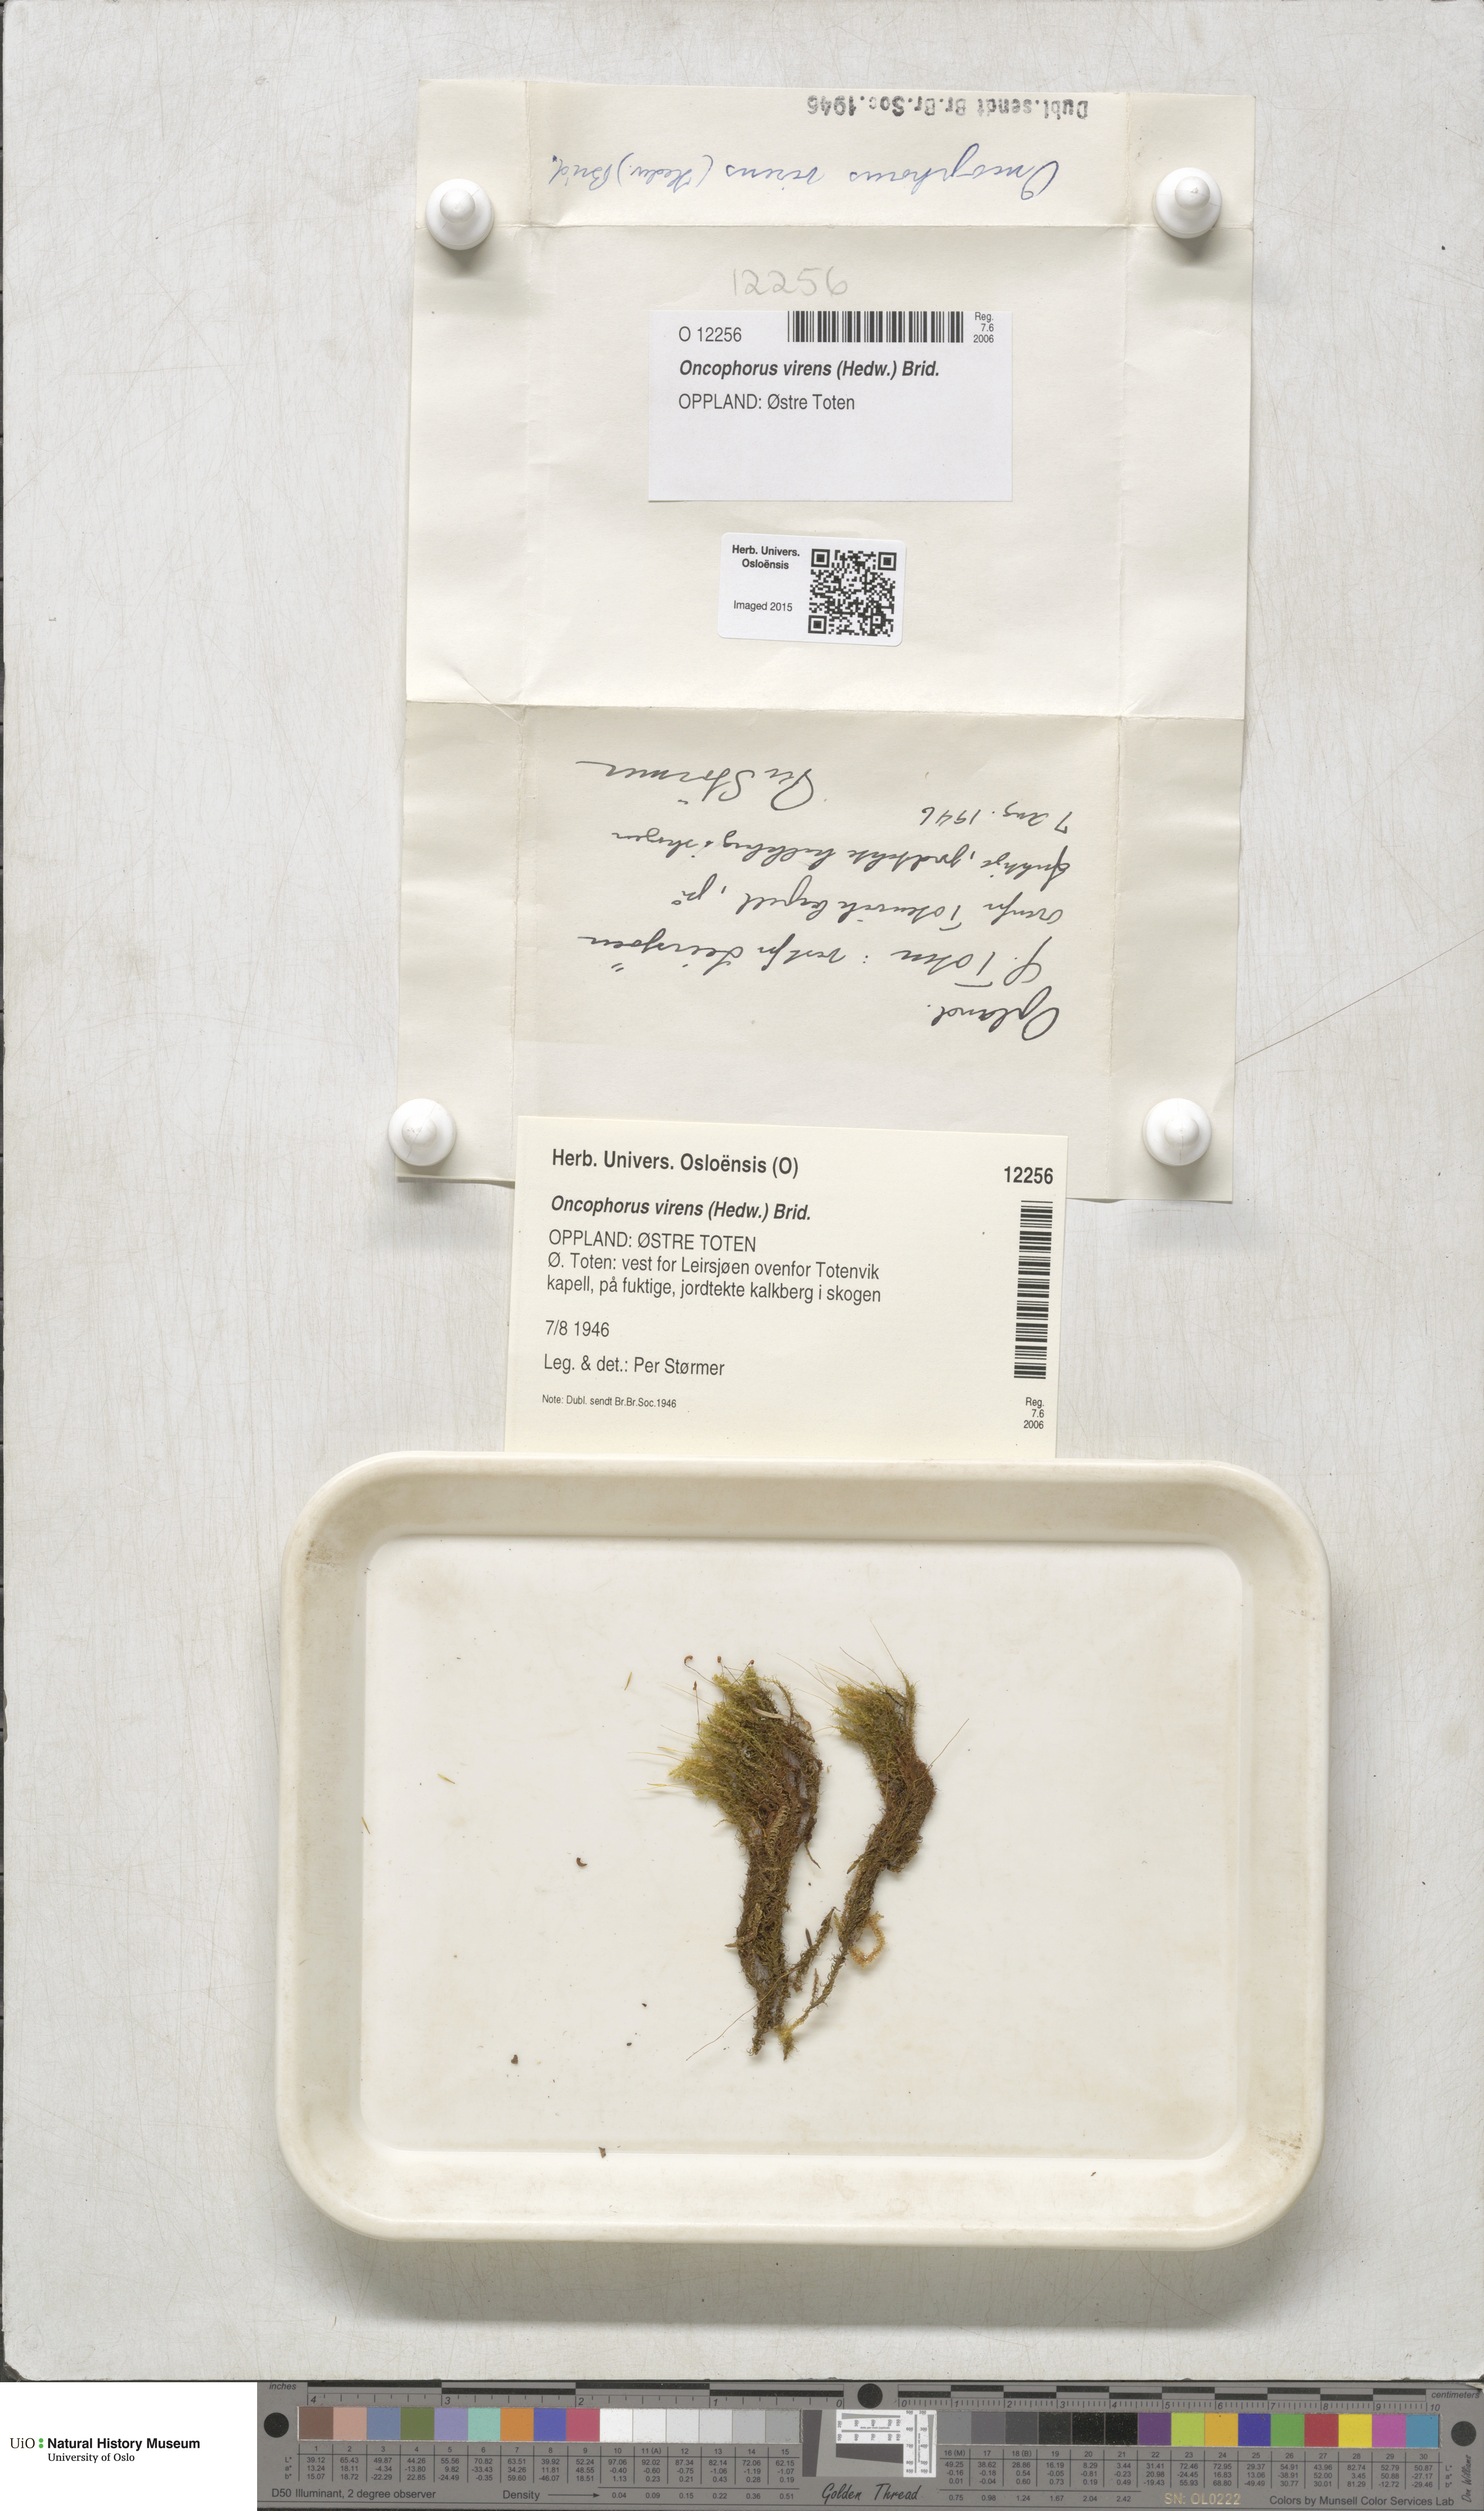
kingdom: Plantae
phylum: Bryophyta
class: Bryopsida
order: Dicranales
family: Rhabdoweisiaceae
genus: Oncophorus
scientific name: Oncophorus virens
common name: Green spur moss
